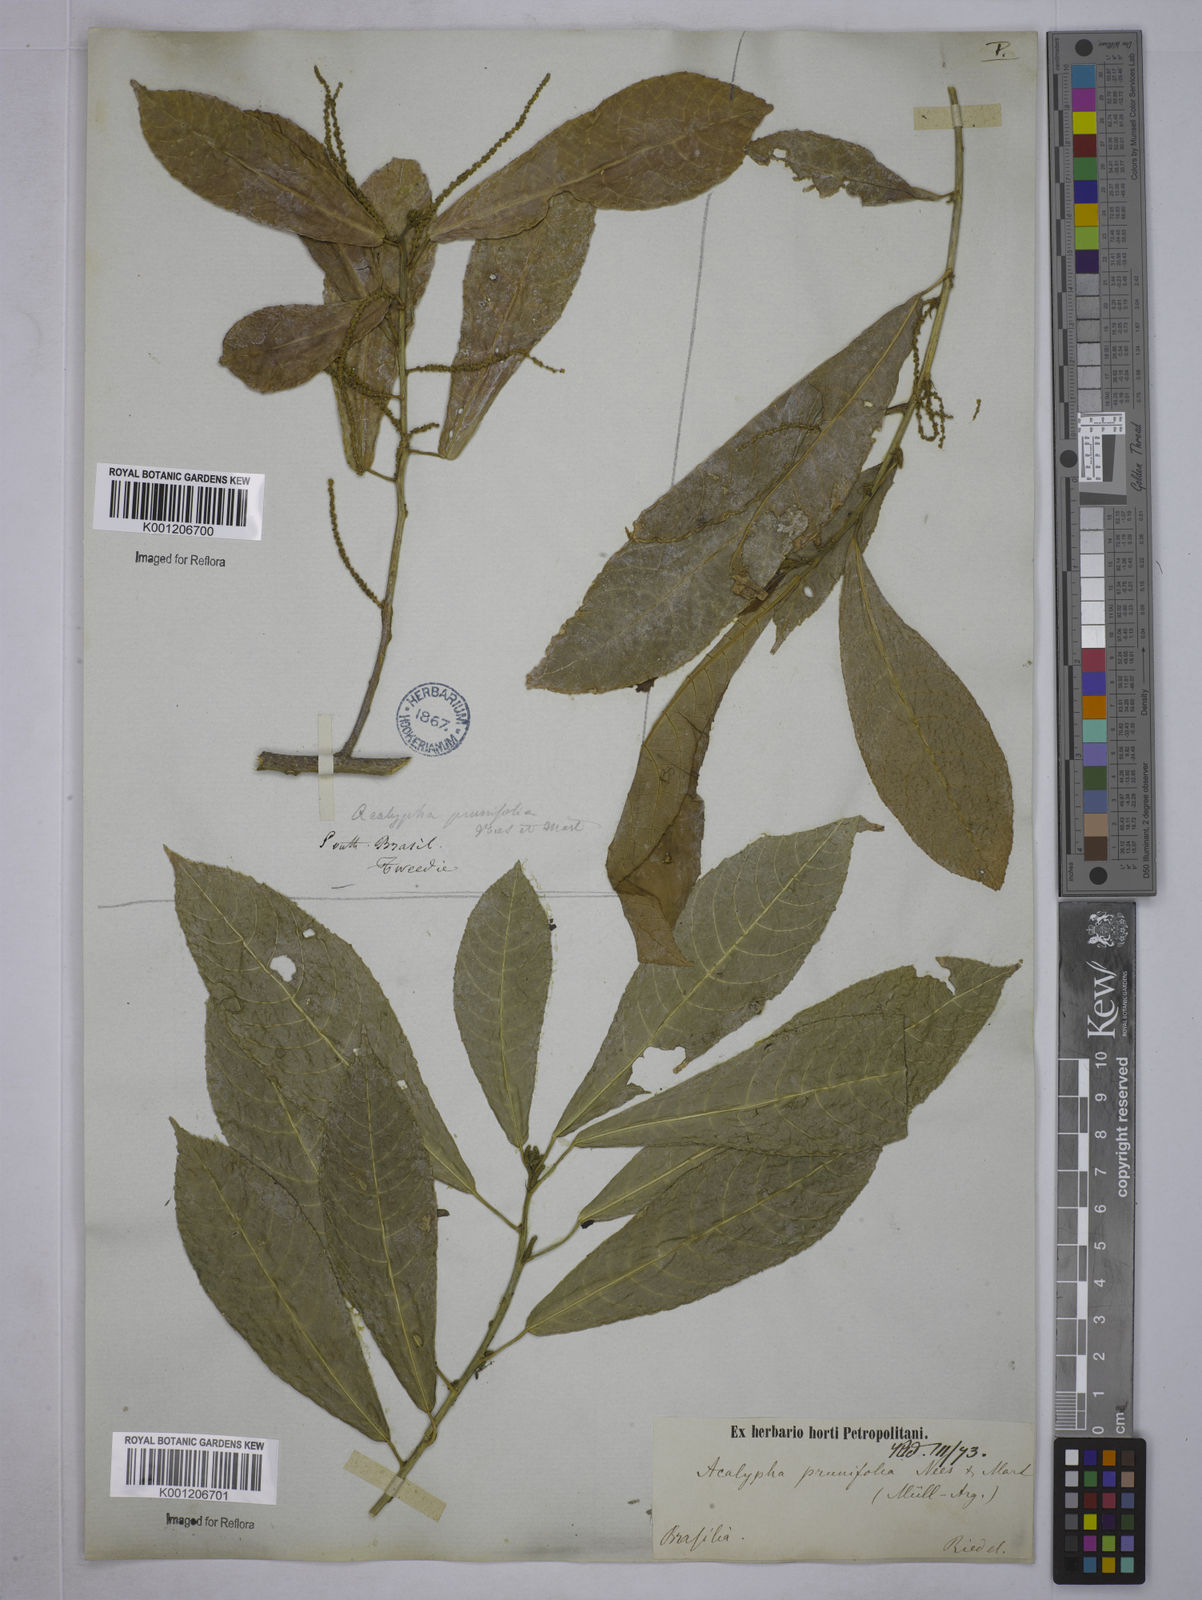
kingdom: Plantae
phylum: Tracheophyta
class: Magnoliopsida
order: Malpighiales
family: Euphorbiaceae
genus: Acalypha
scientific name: Acalypha klotzschii
